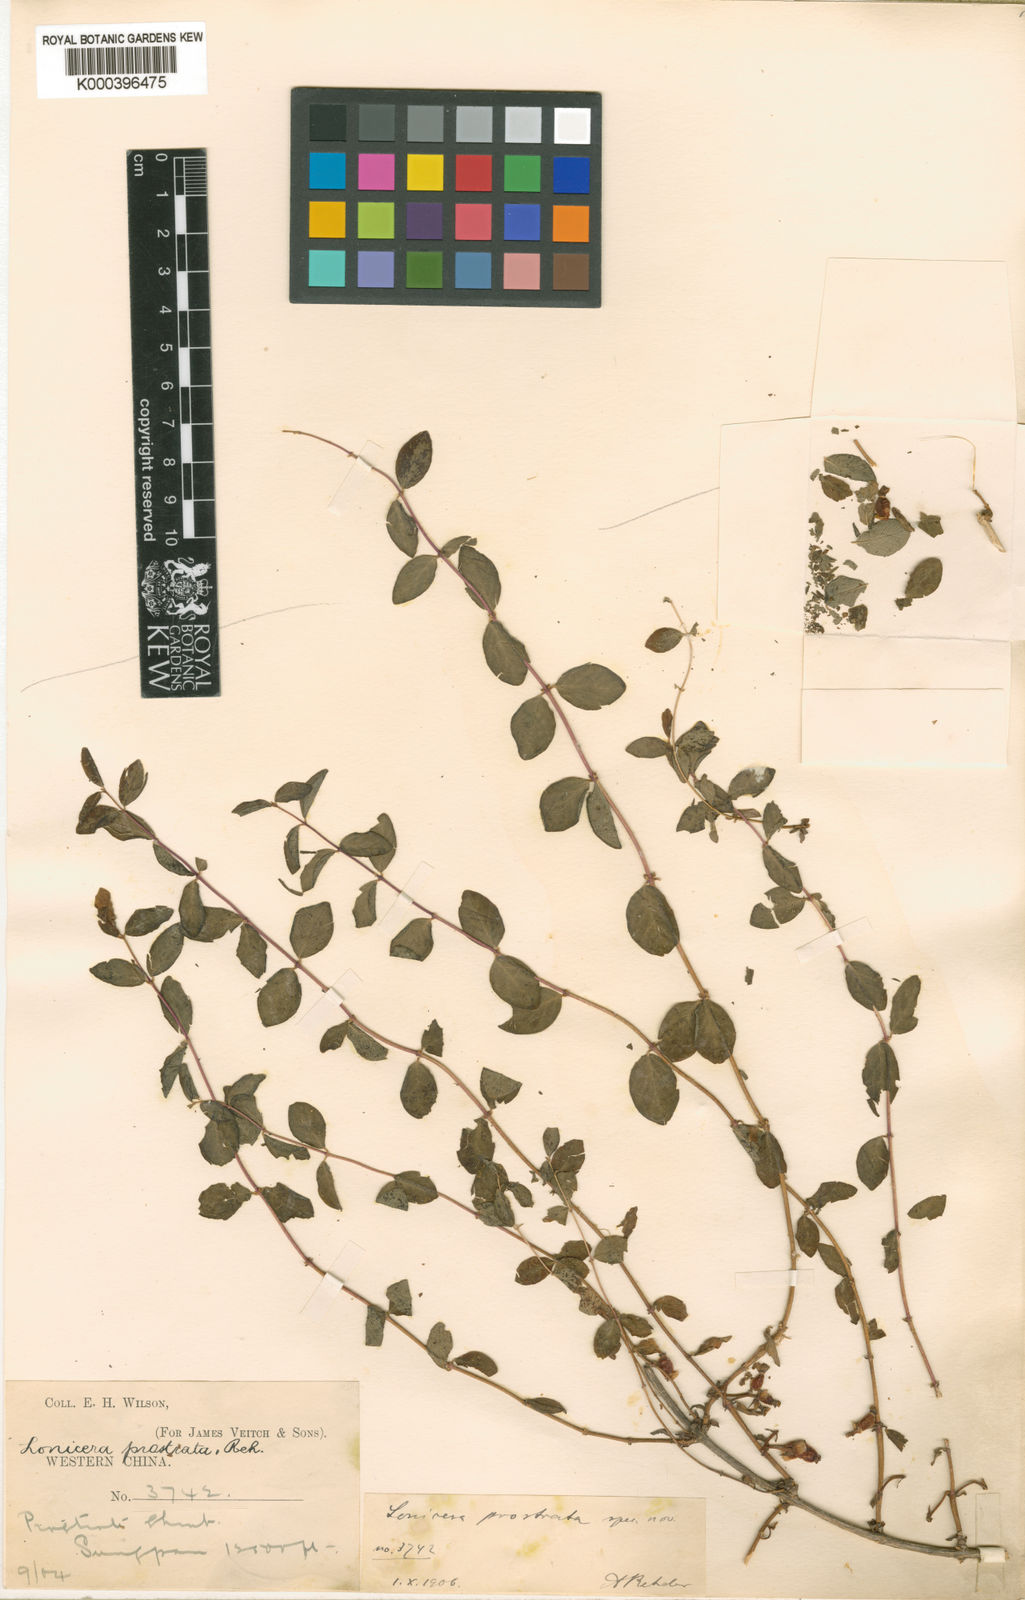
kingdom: Plantae
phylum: Tracheophyta
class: Magnoliopsida
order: Dipsacales
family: Caprifoliaceae
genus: Lonicera
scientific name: Lonicera trichosantha
